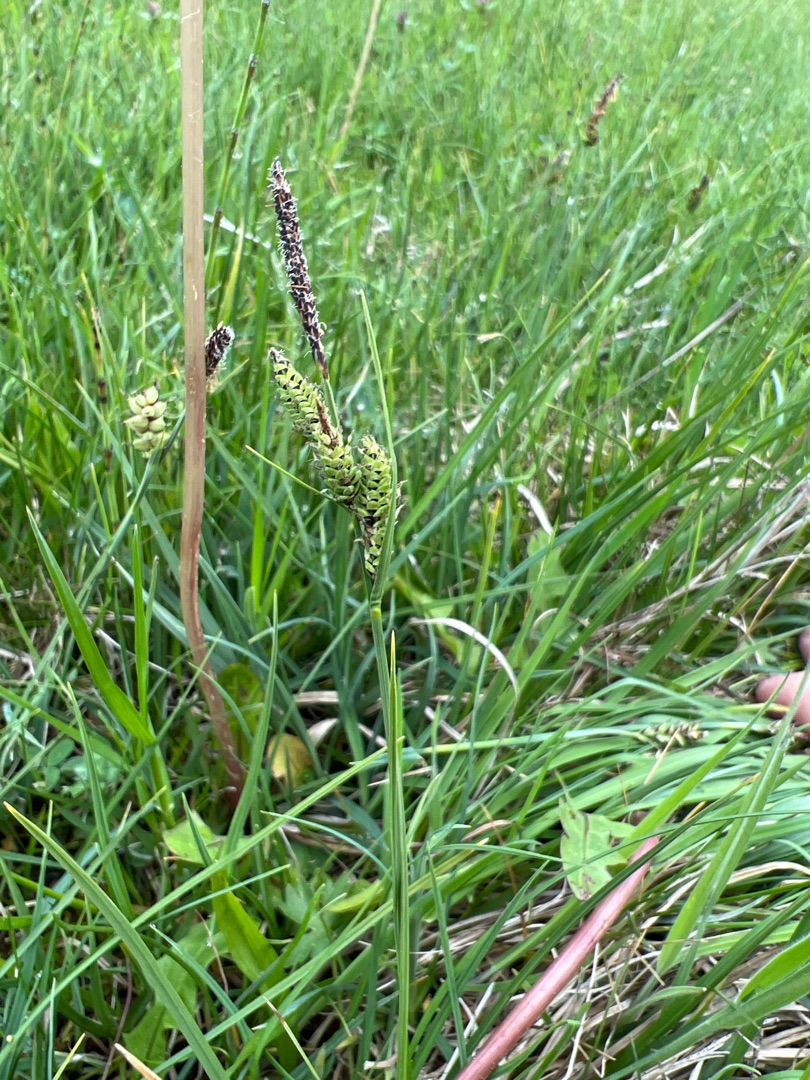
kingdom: Plantae
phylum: Tracheophyta
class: Liliopsida
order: Poales
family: Cyperaceae
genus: Carex
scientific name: Carex nigra
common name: Almindelig star (varietet)
